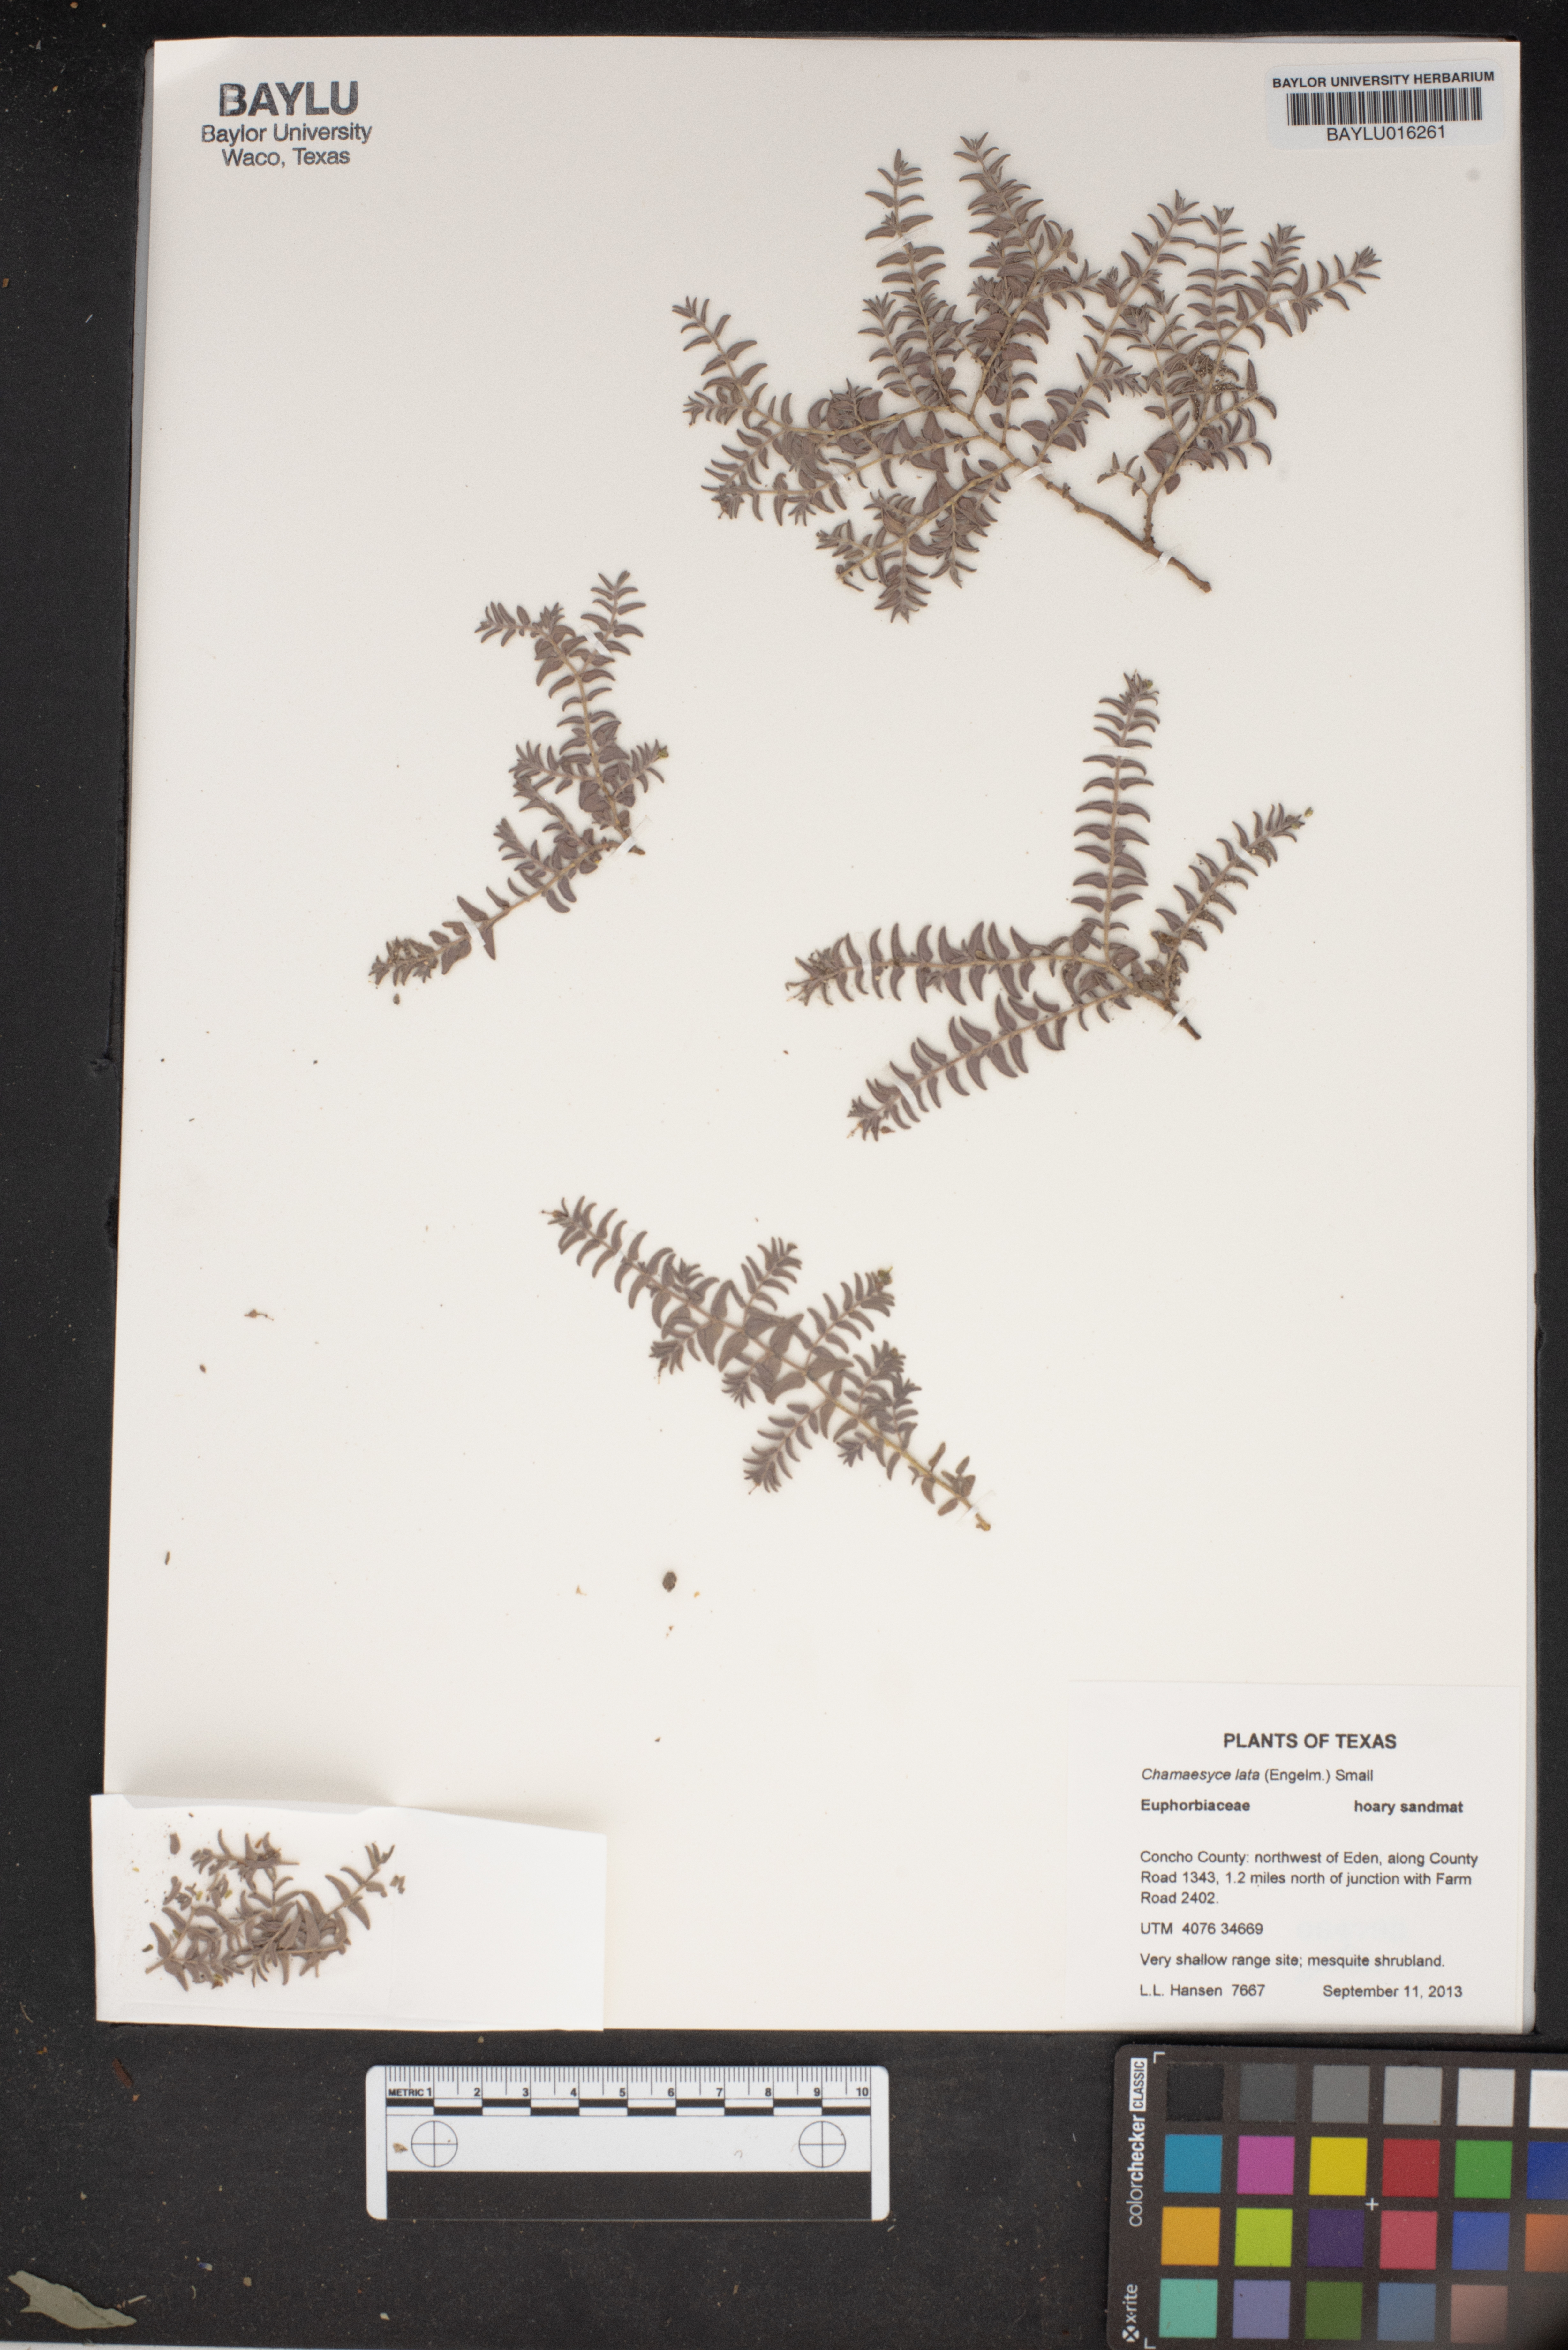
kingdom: Plantae
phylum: Tracheophyta
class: Magnoliopsida
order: Malpighiales
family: Euphorbiaceae
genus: Euphorbia
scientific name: Euphorbia lata
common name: Hoary euphorbia
